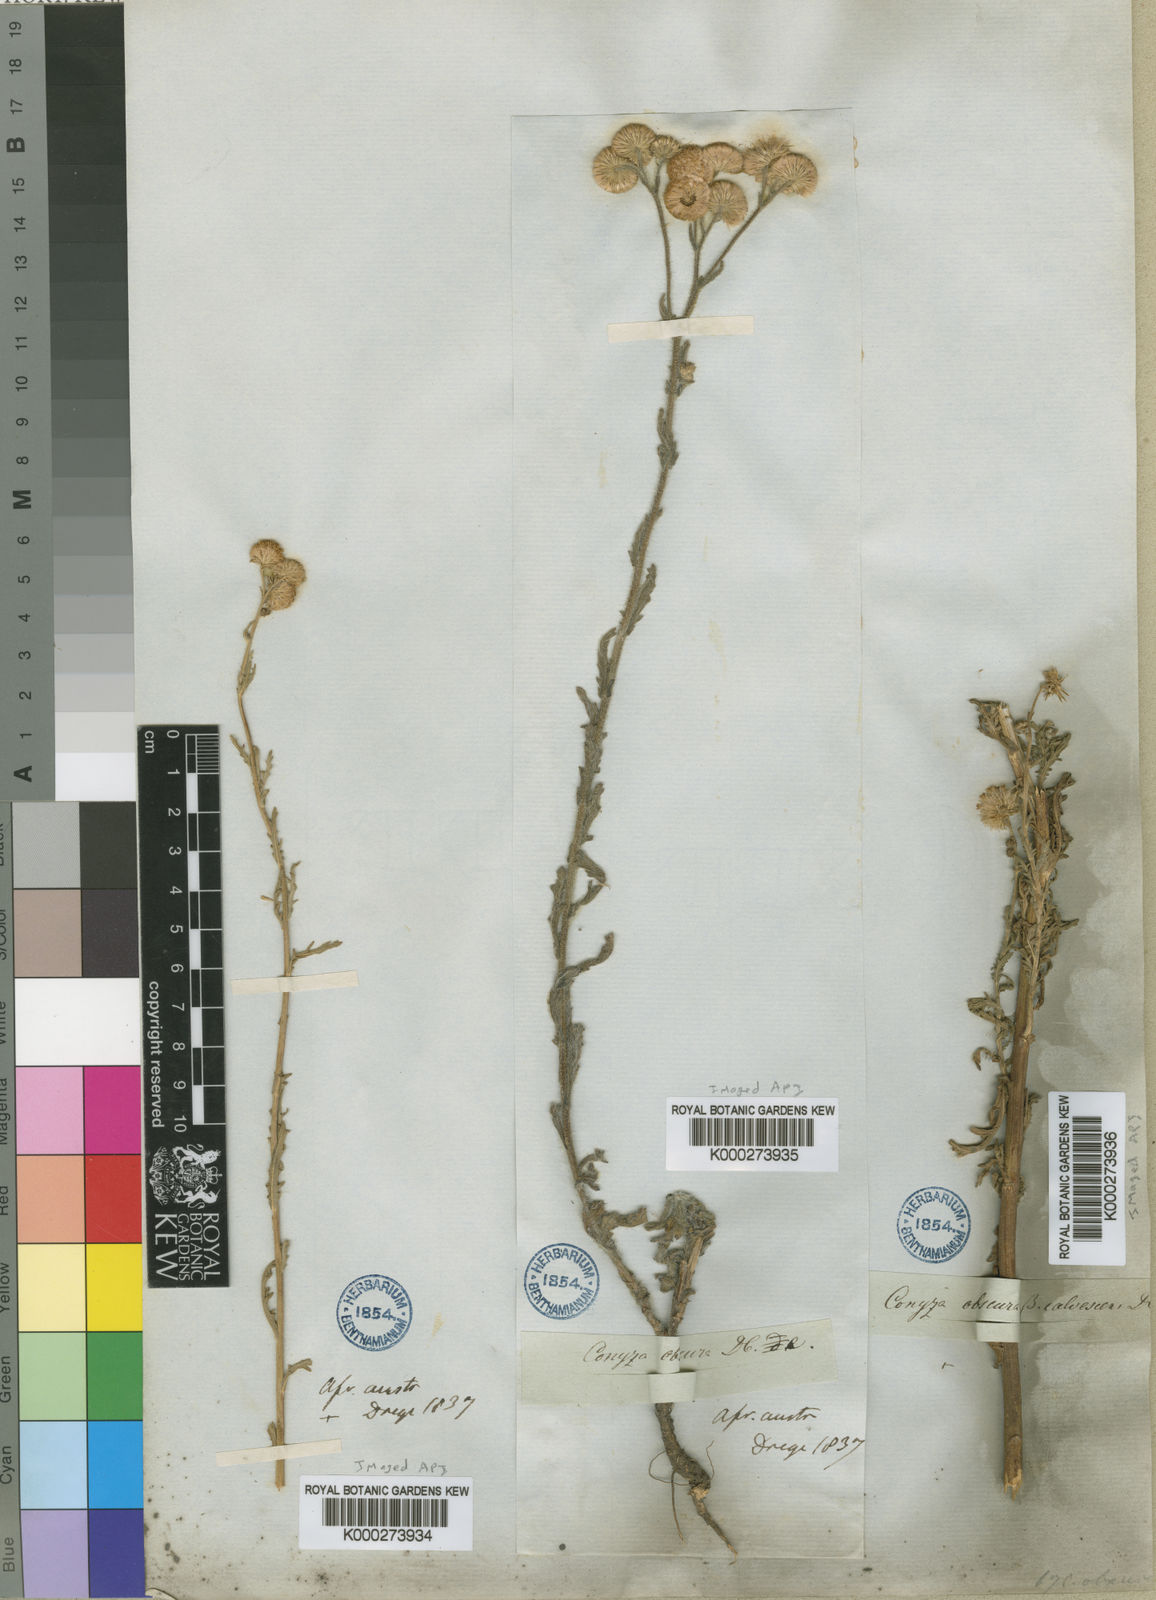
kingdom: Plantae
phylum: Tracheophyta
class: Magnoliopsida
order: Asterales
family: Asteraceae
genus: Nidorella
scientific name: Nidorella obscura
